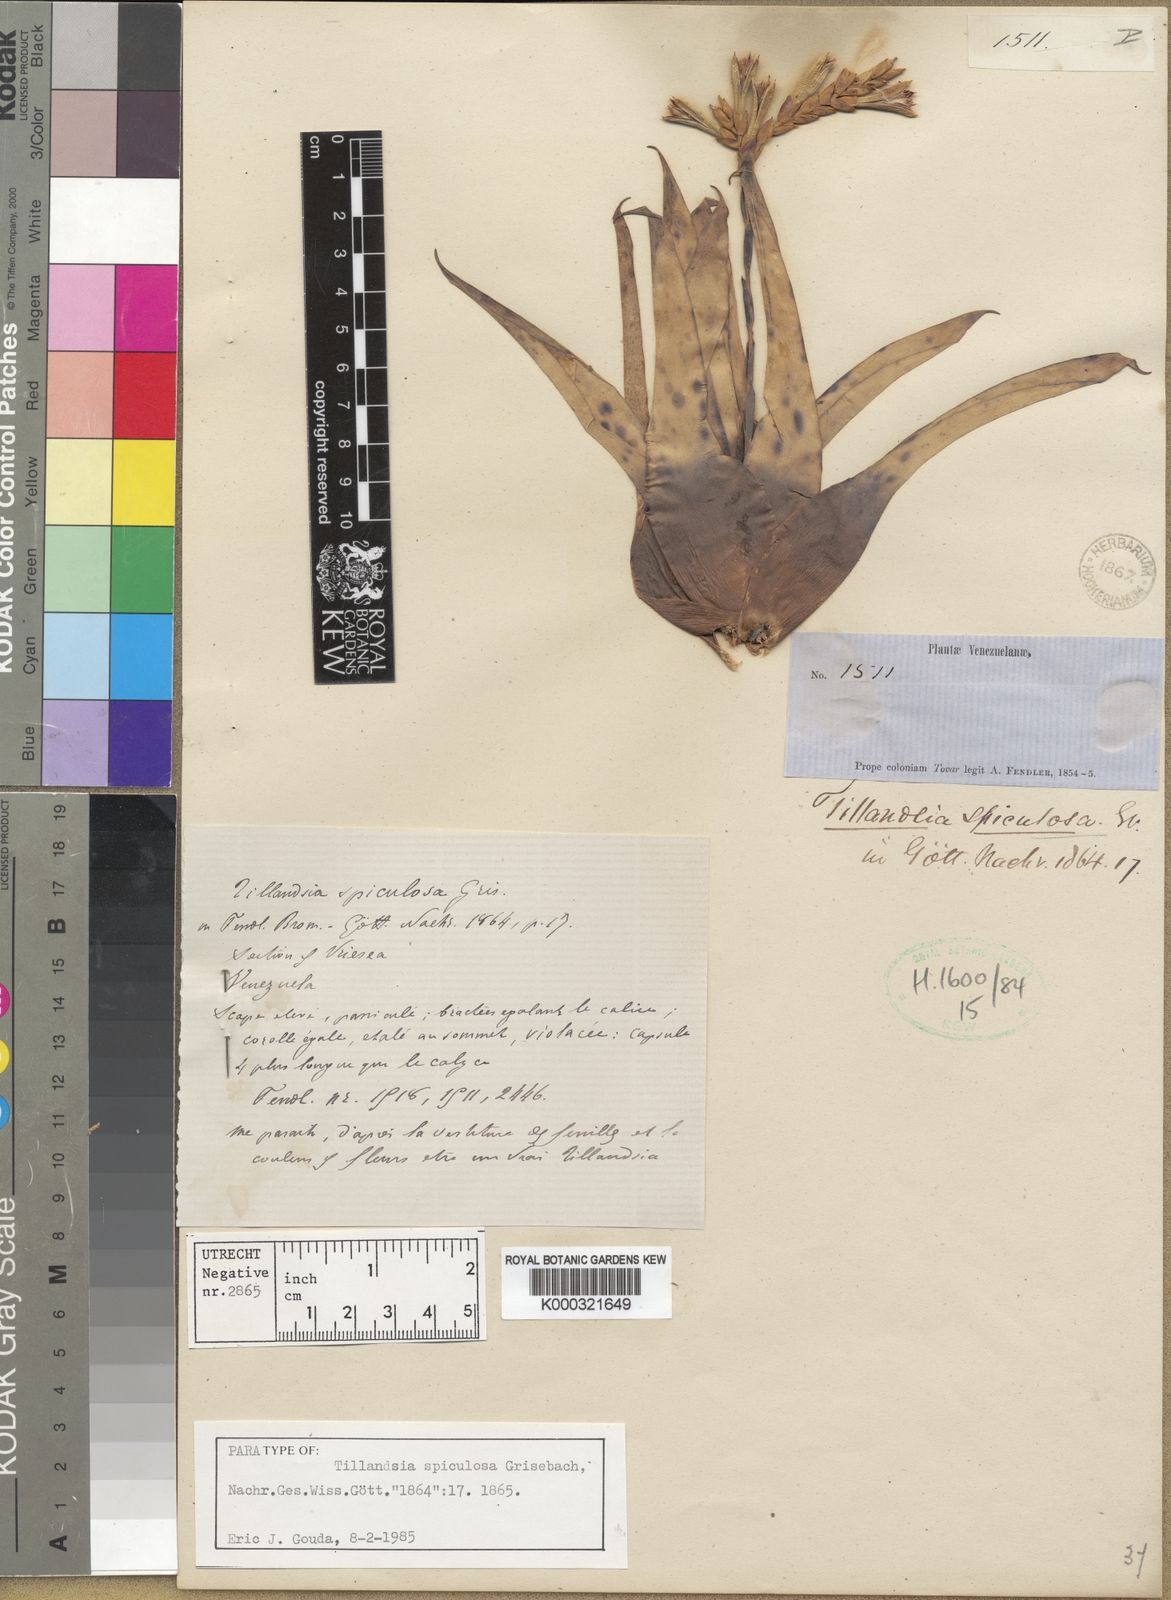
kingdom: Plantae
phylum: Tracheophyta
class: Liliopsida
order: Poales
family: Bromeliaceae
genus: Racinaea
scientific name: Racinaea spiculosa
